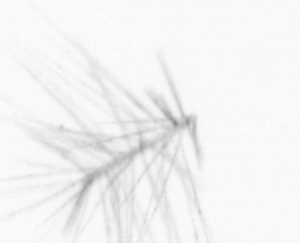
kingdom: Chromista
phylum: Ochrophyta
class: Bacillariophyceae
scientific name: Bacillariophyceae
